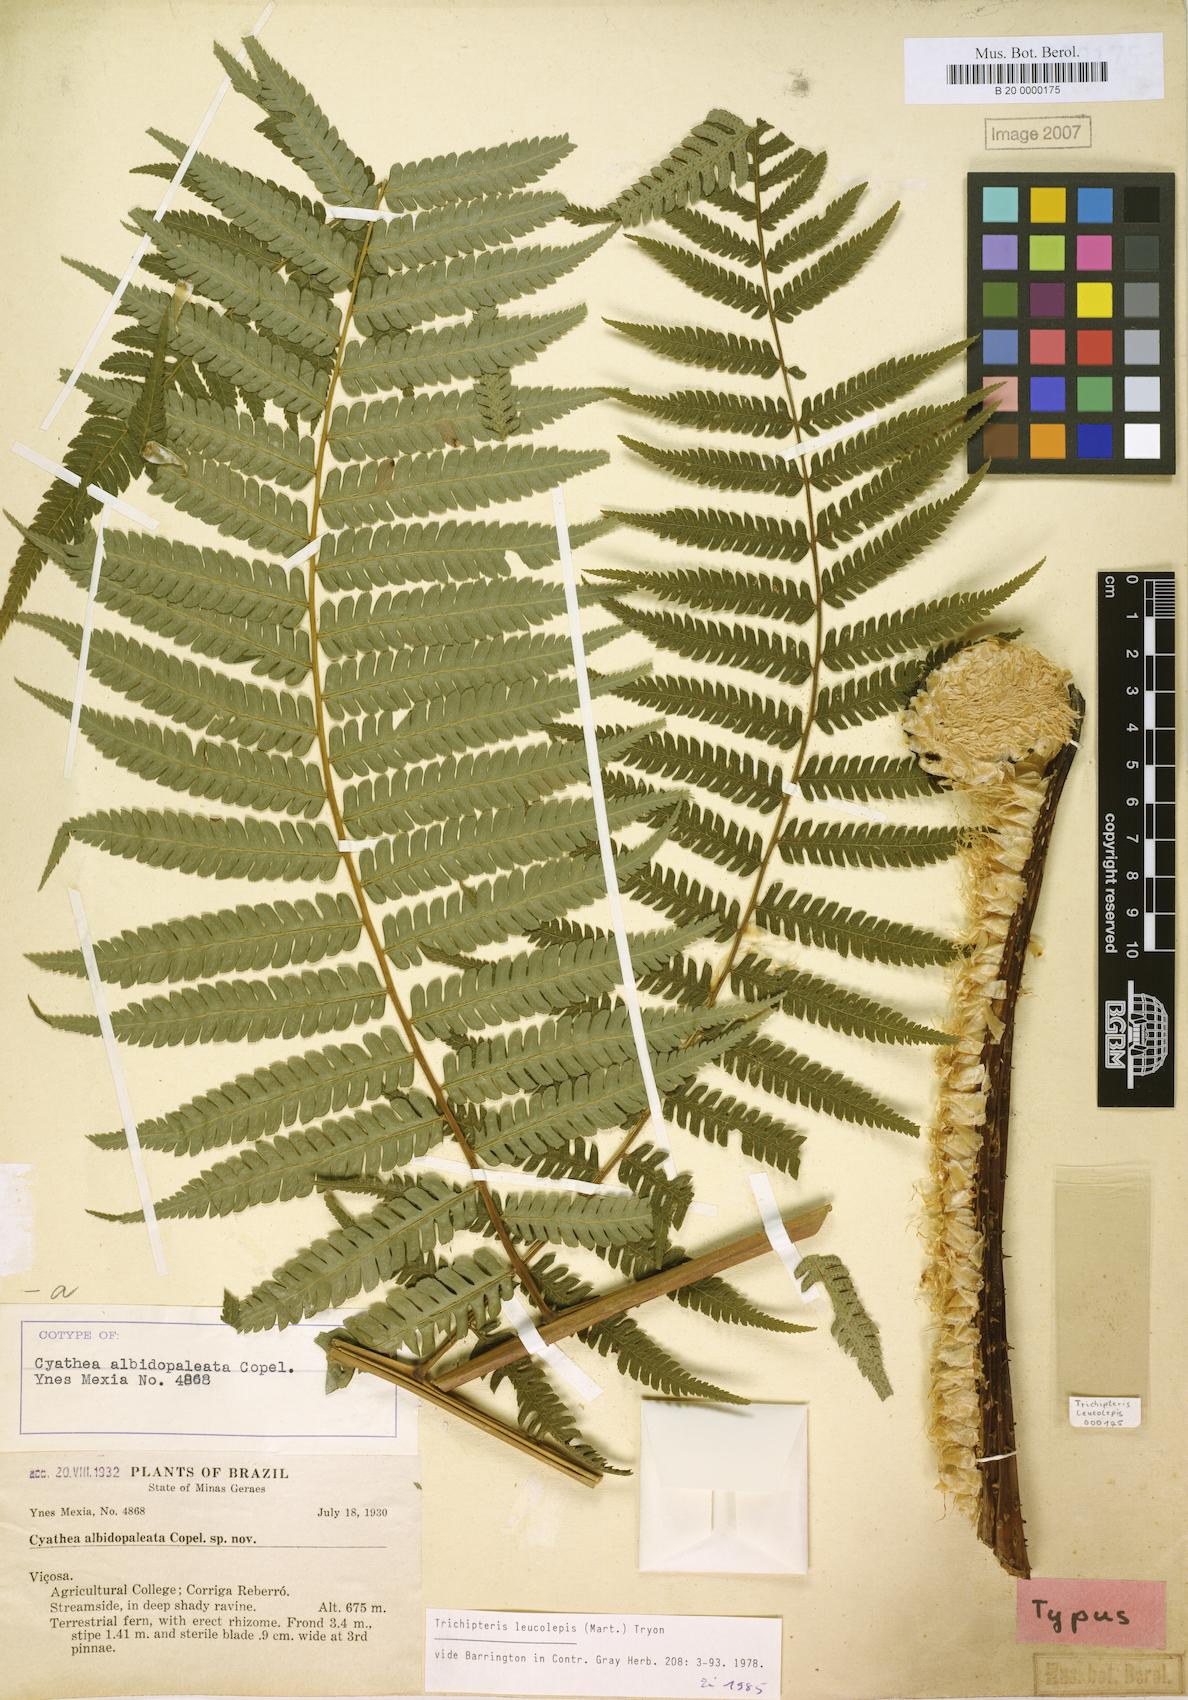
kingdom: Plantae
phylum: Tracheophyta
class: Polypodiopsida
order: Cyatheales
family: Cyatheaceae
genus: Cyathea
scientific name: Cyathea axillaris
